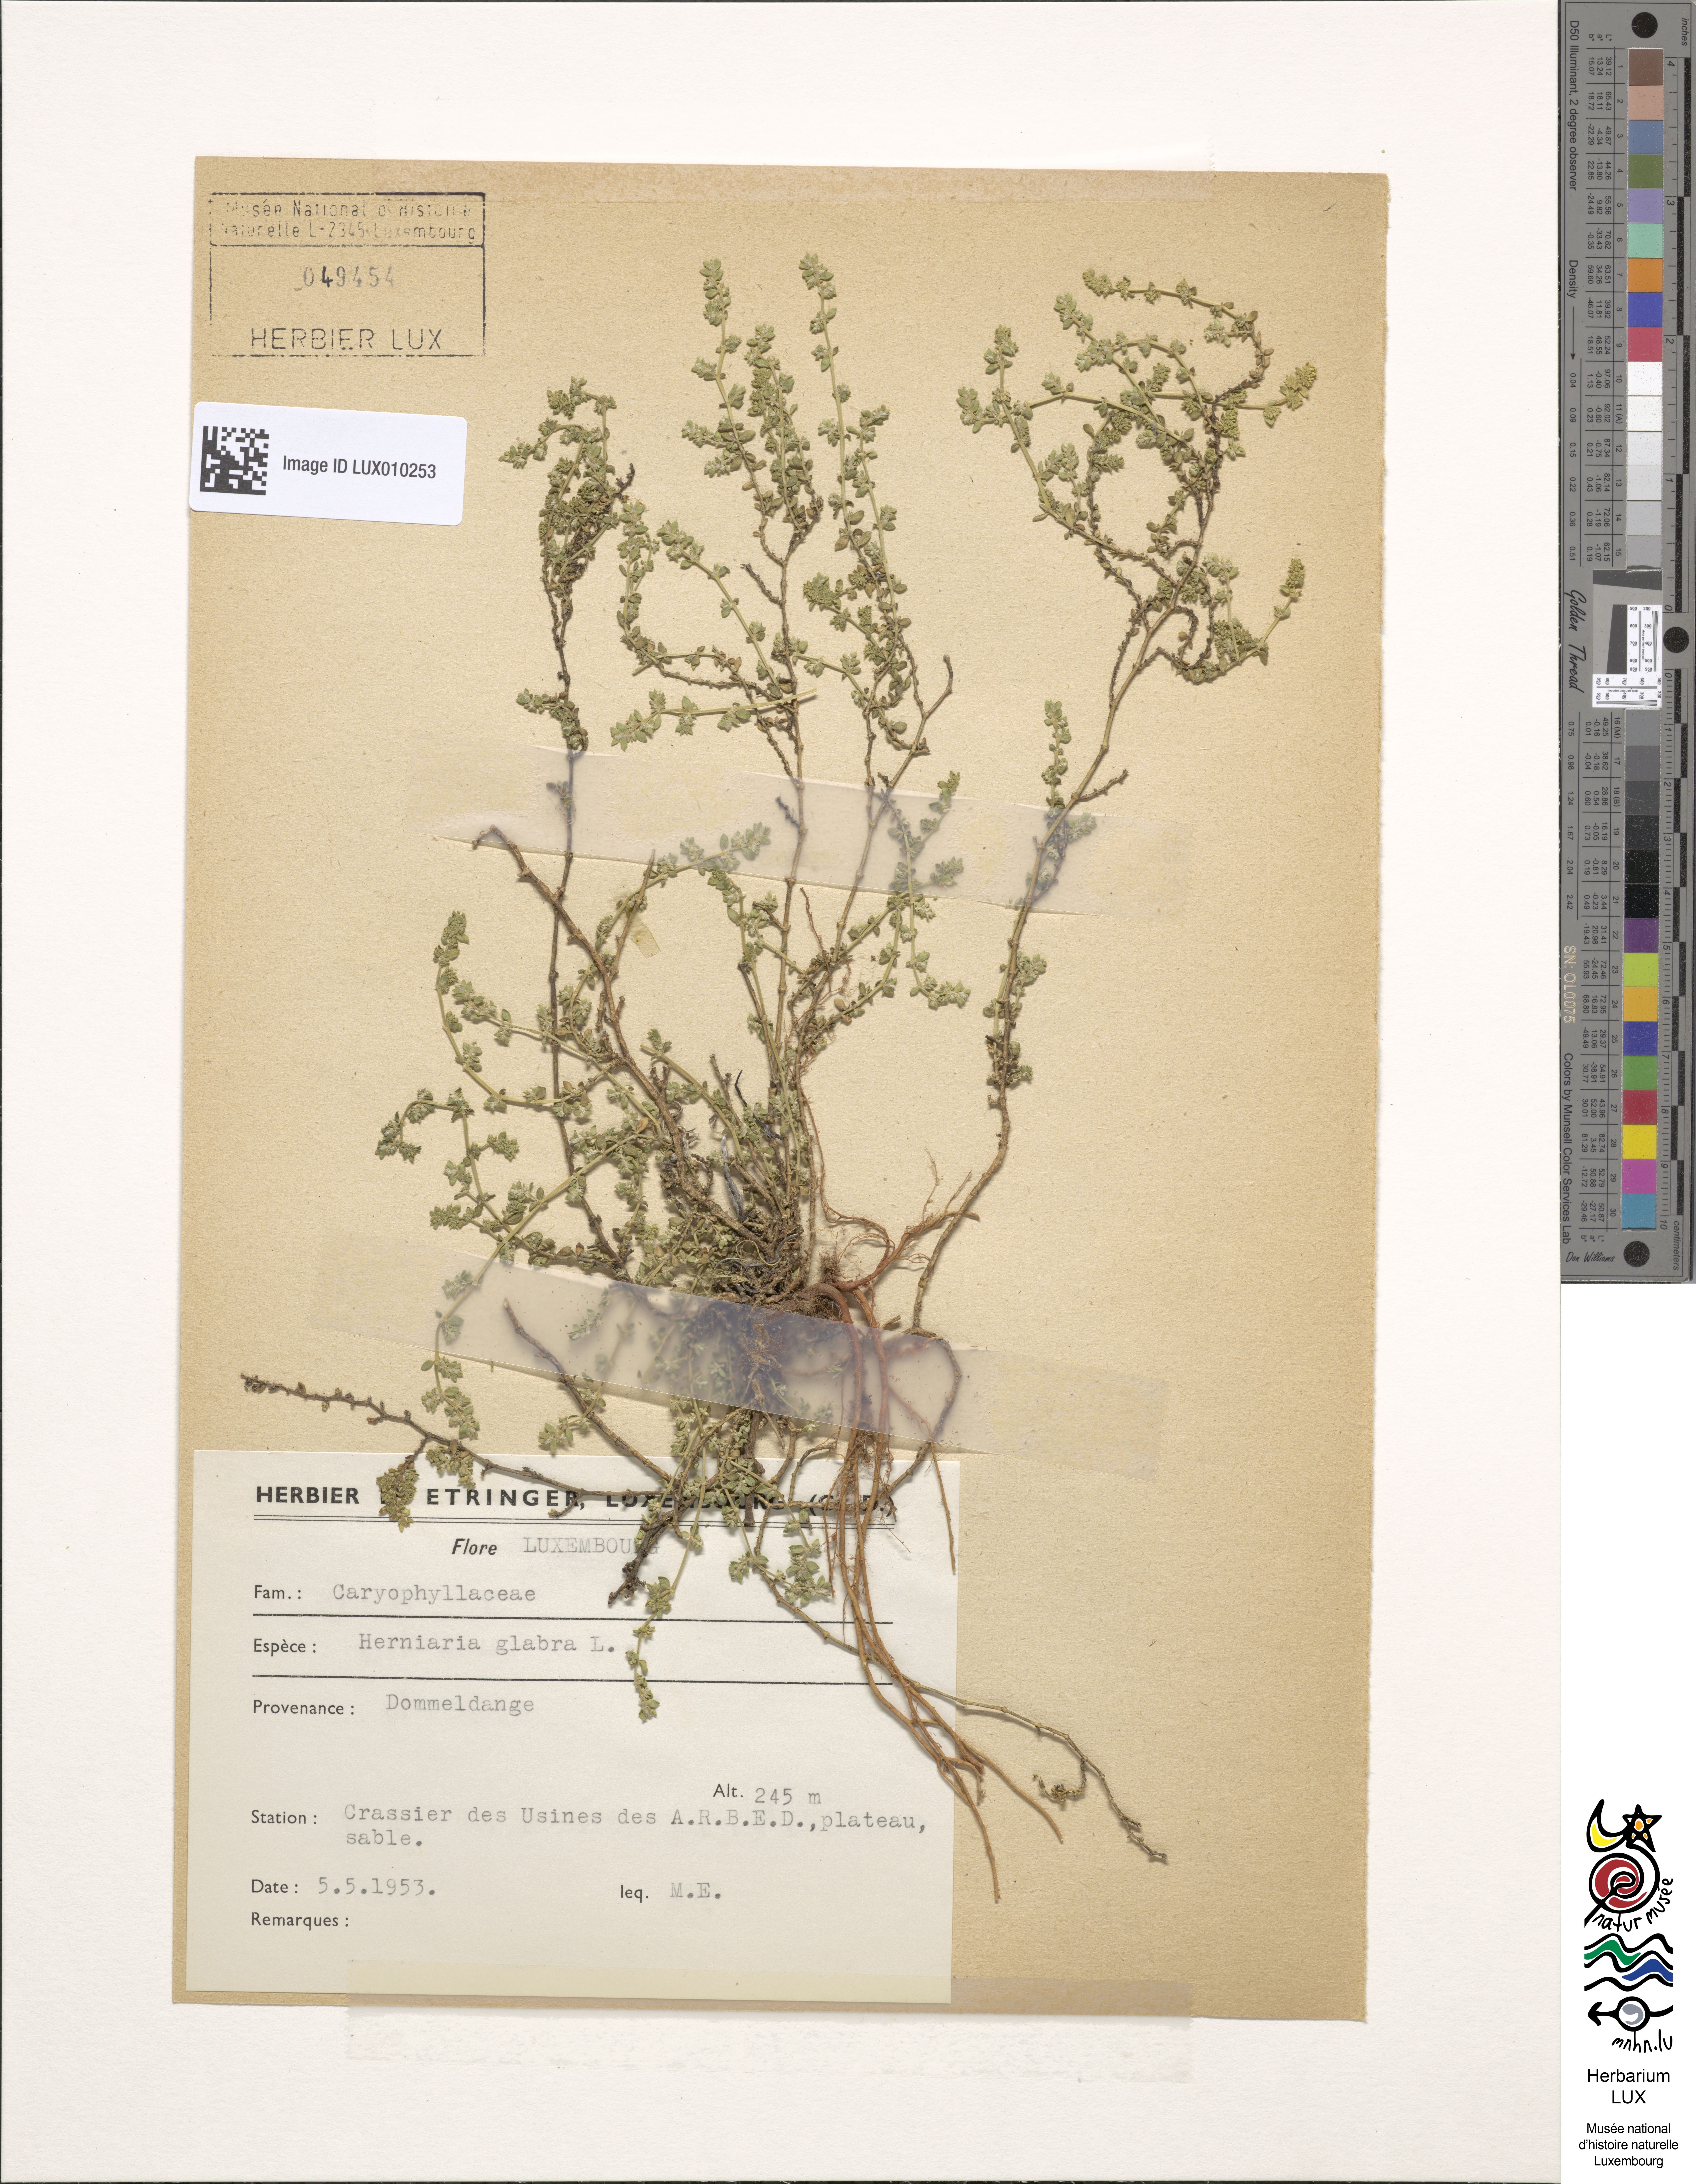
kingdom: Plantae
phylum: Tracheophyta
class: Magnoliopsida
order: Caryophyllales
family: Caryophyllaceae
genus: Herniaria
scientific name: Herniaria glabra
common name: Smooth rupturewort
